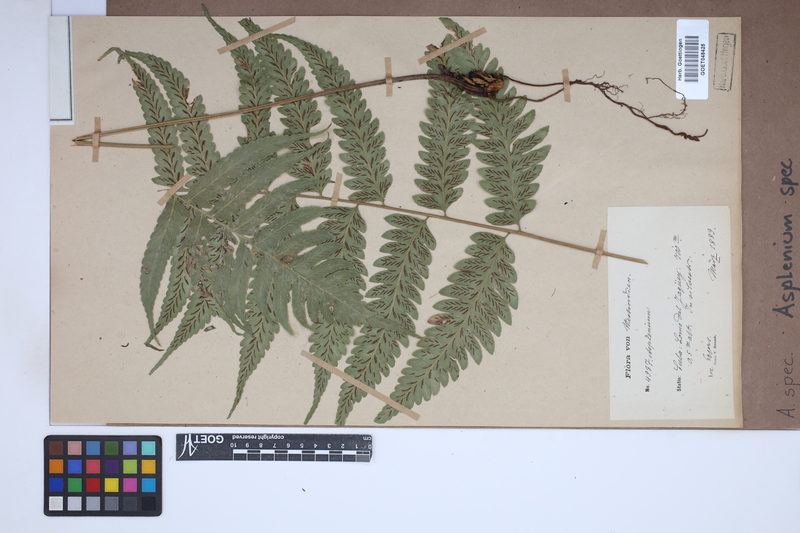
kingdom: Plantae
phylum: Tracheophyta
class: Polypodiopsida
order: Polypodiales
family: Aspleniaceae
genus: Asplenium
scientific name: Asplenium
